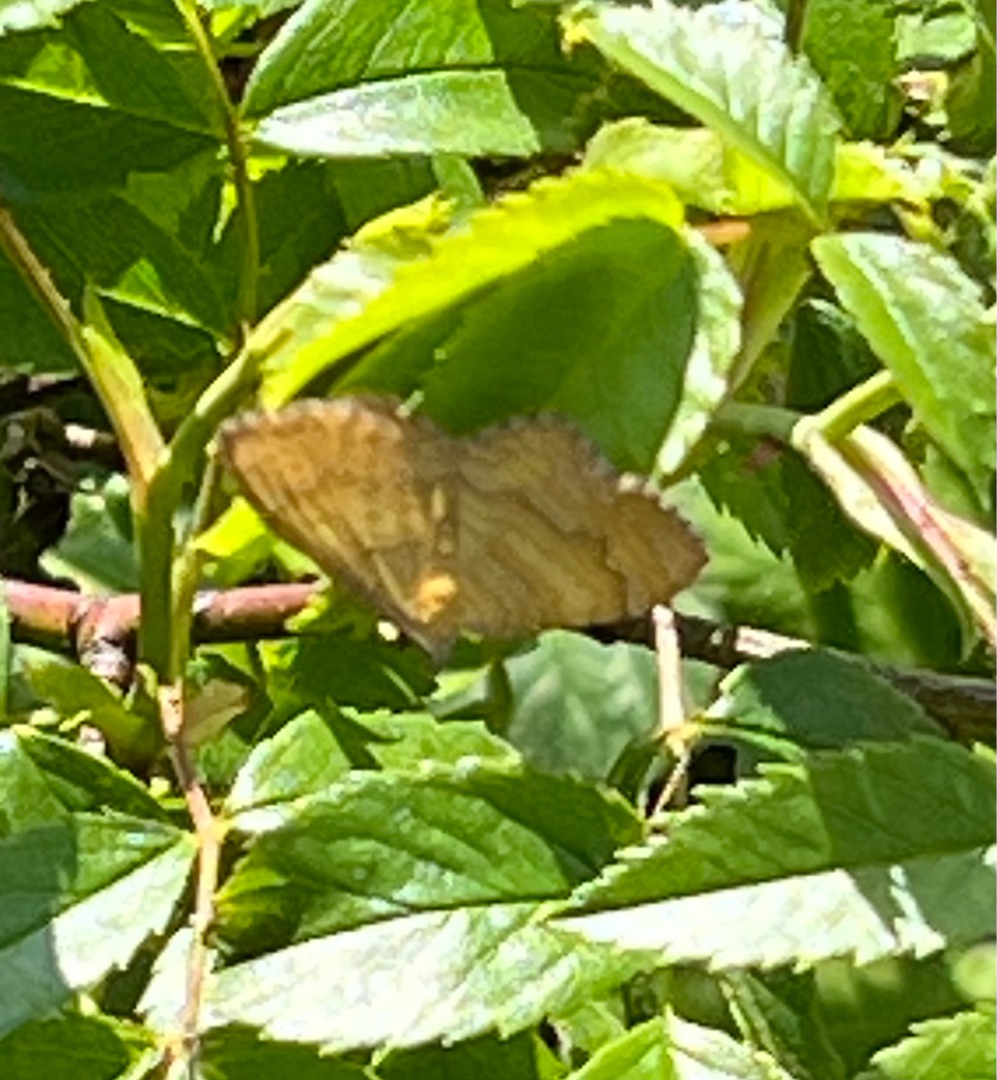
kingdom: Animalia
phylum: Arthropoda
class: Insecta
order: Lepidoptera
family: Geometridae
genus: Camptogramma
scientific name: Camptogramma bilineata
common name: Okkergul bladmåler
